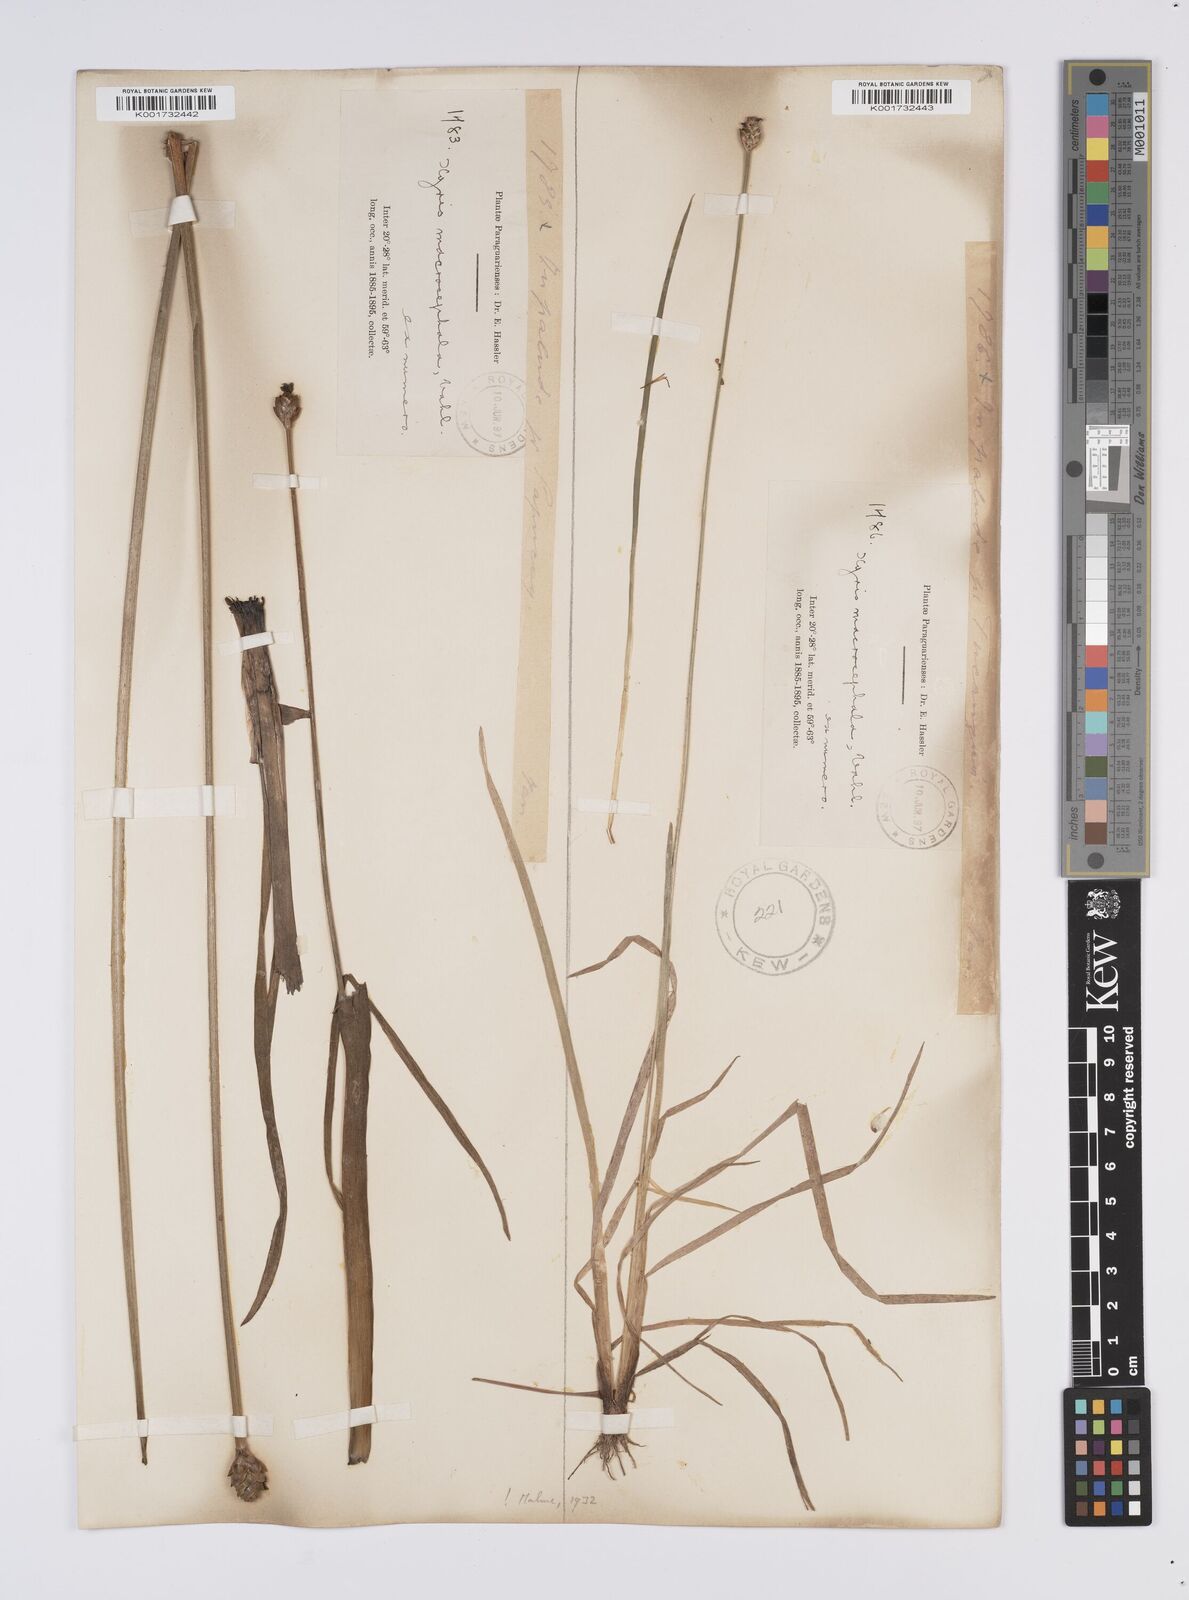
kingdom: Plantae
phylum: Tracheophyta
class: Liliopsida
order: Poales
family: Xyridaceae
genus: Xyris
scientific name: Xyris jupicai
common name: Richard's yelloweyed grass
